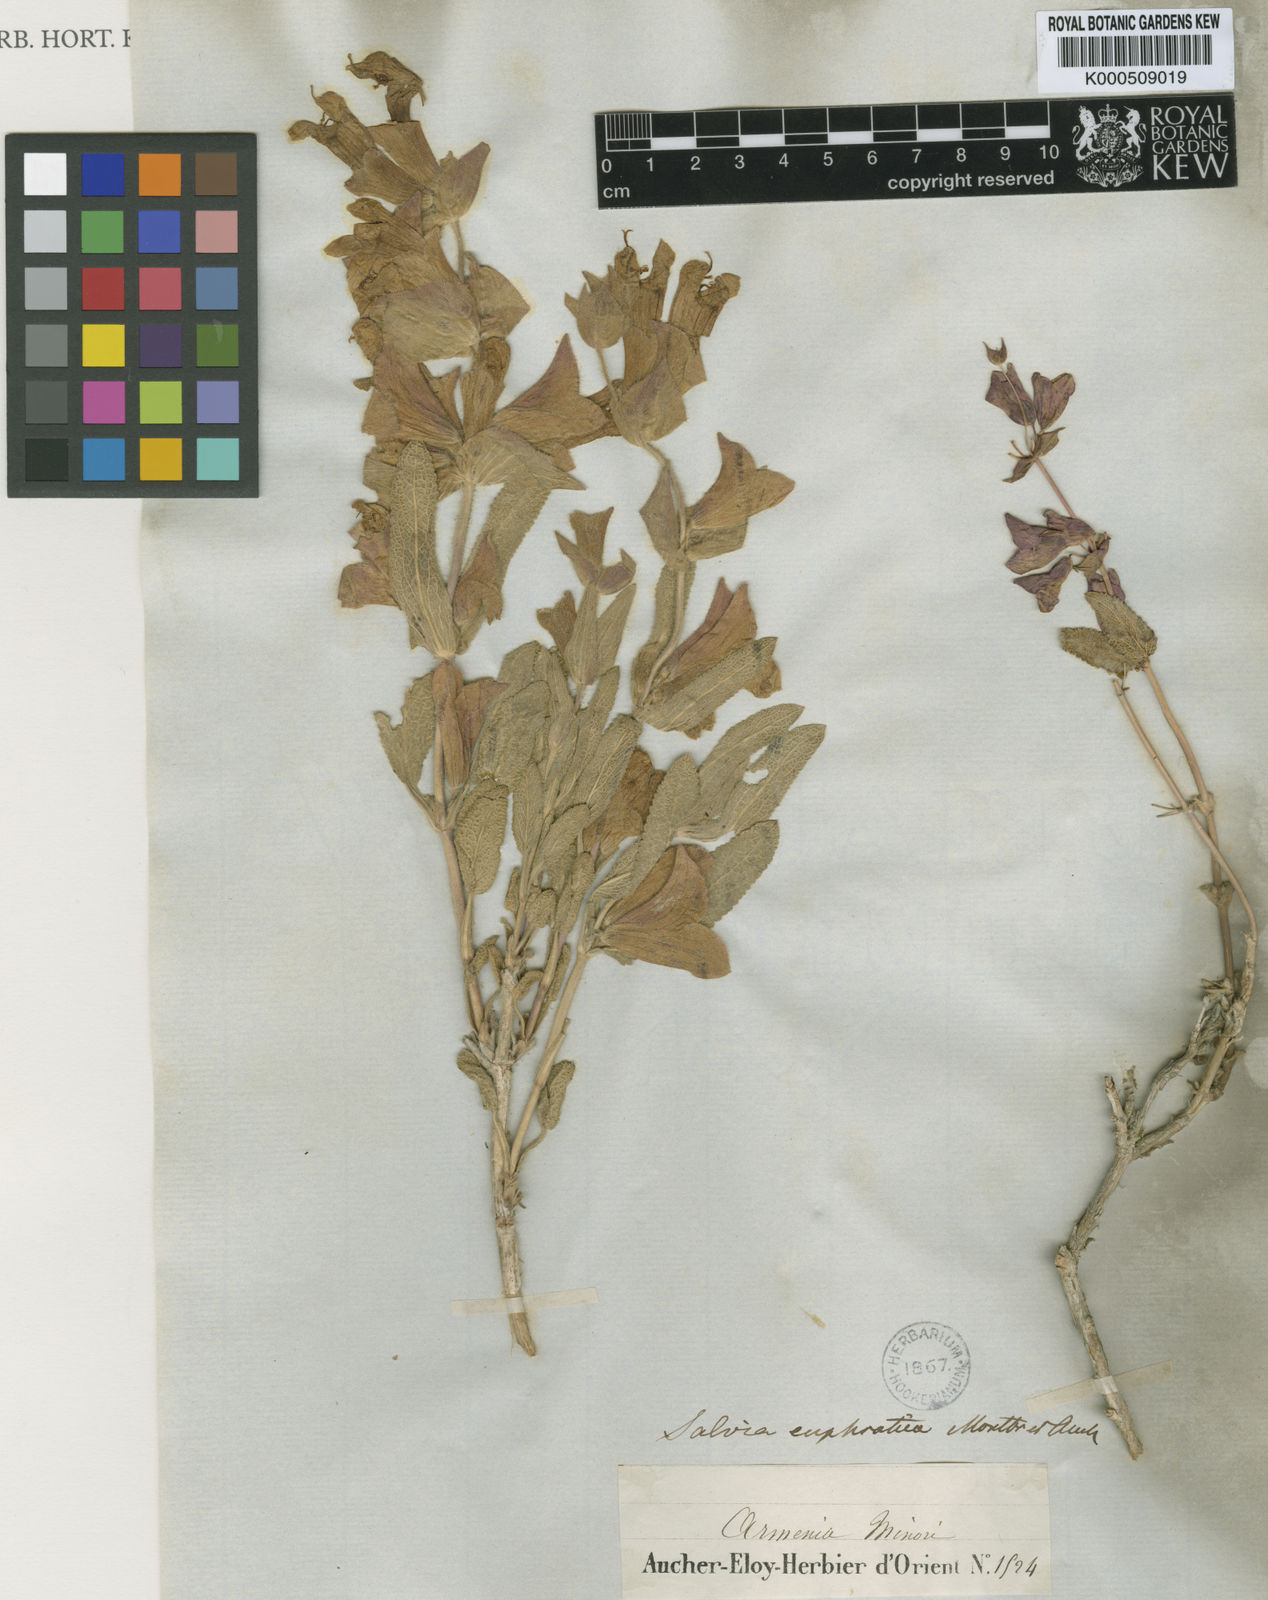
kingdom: Plantae
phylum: Tracheophyta
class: Magnoliopsida
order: Lamiales
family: Lamiaceae
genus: Salvia
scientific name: Salvia euphratica
